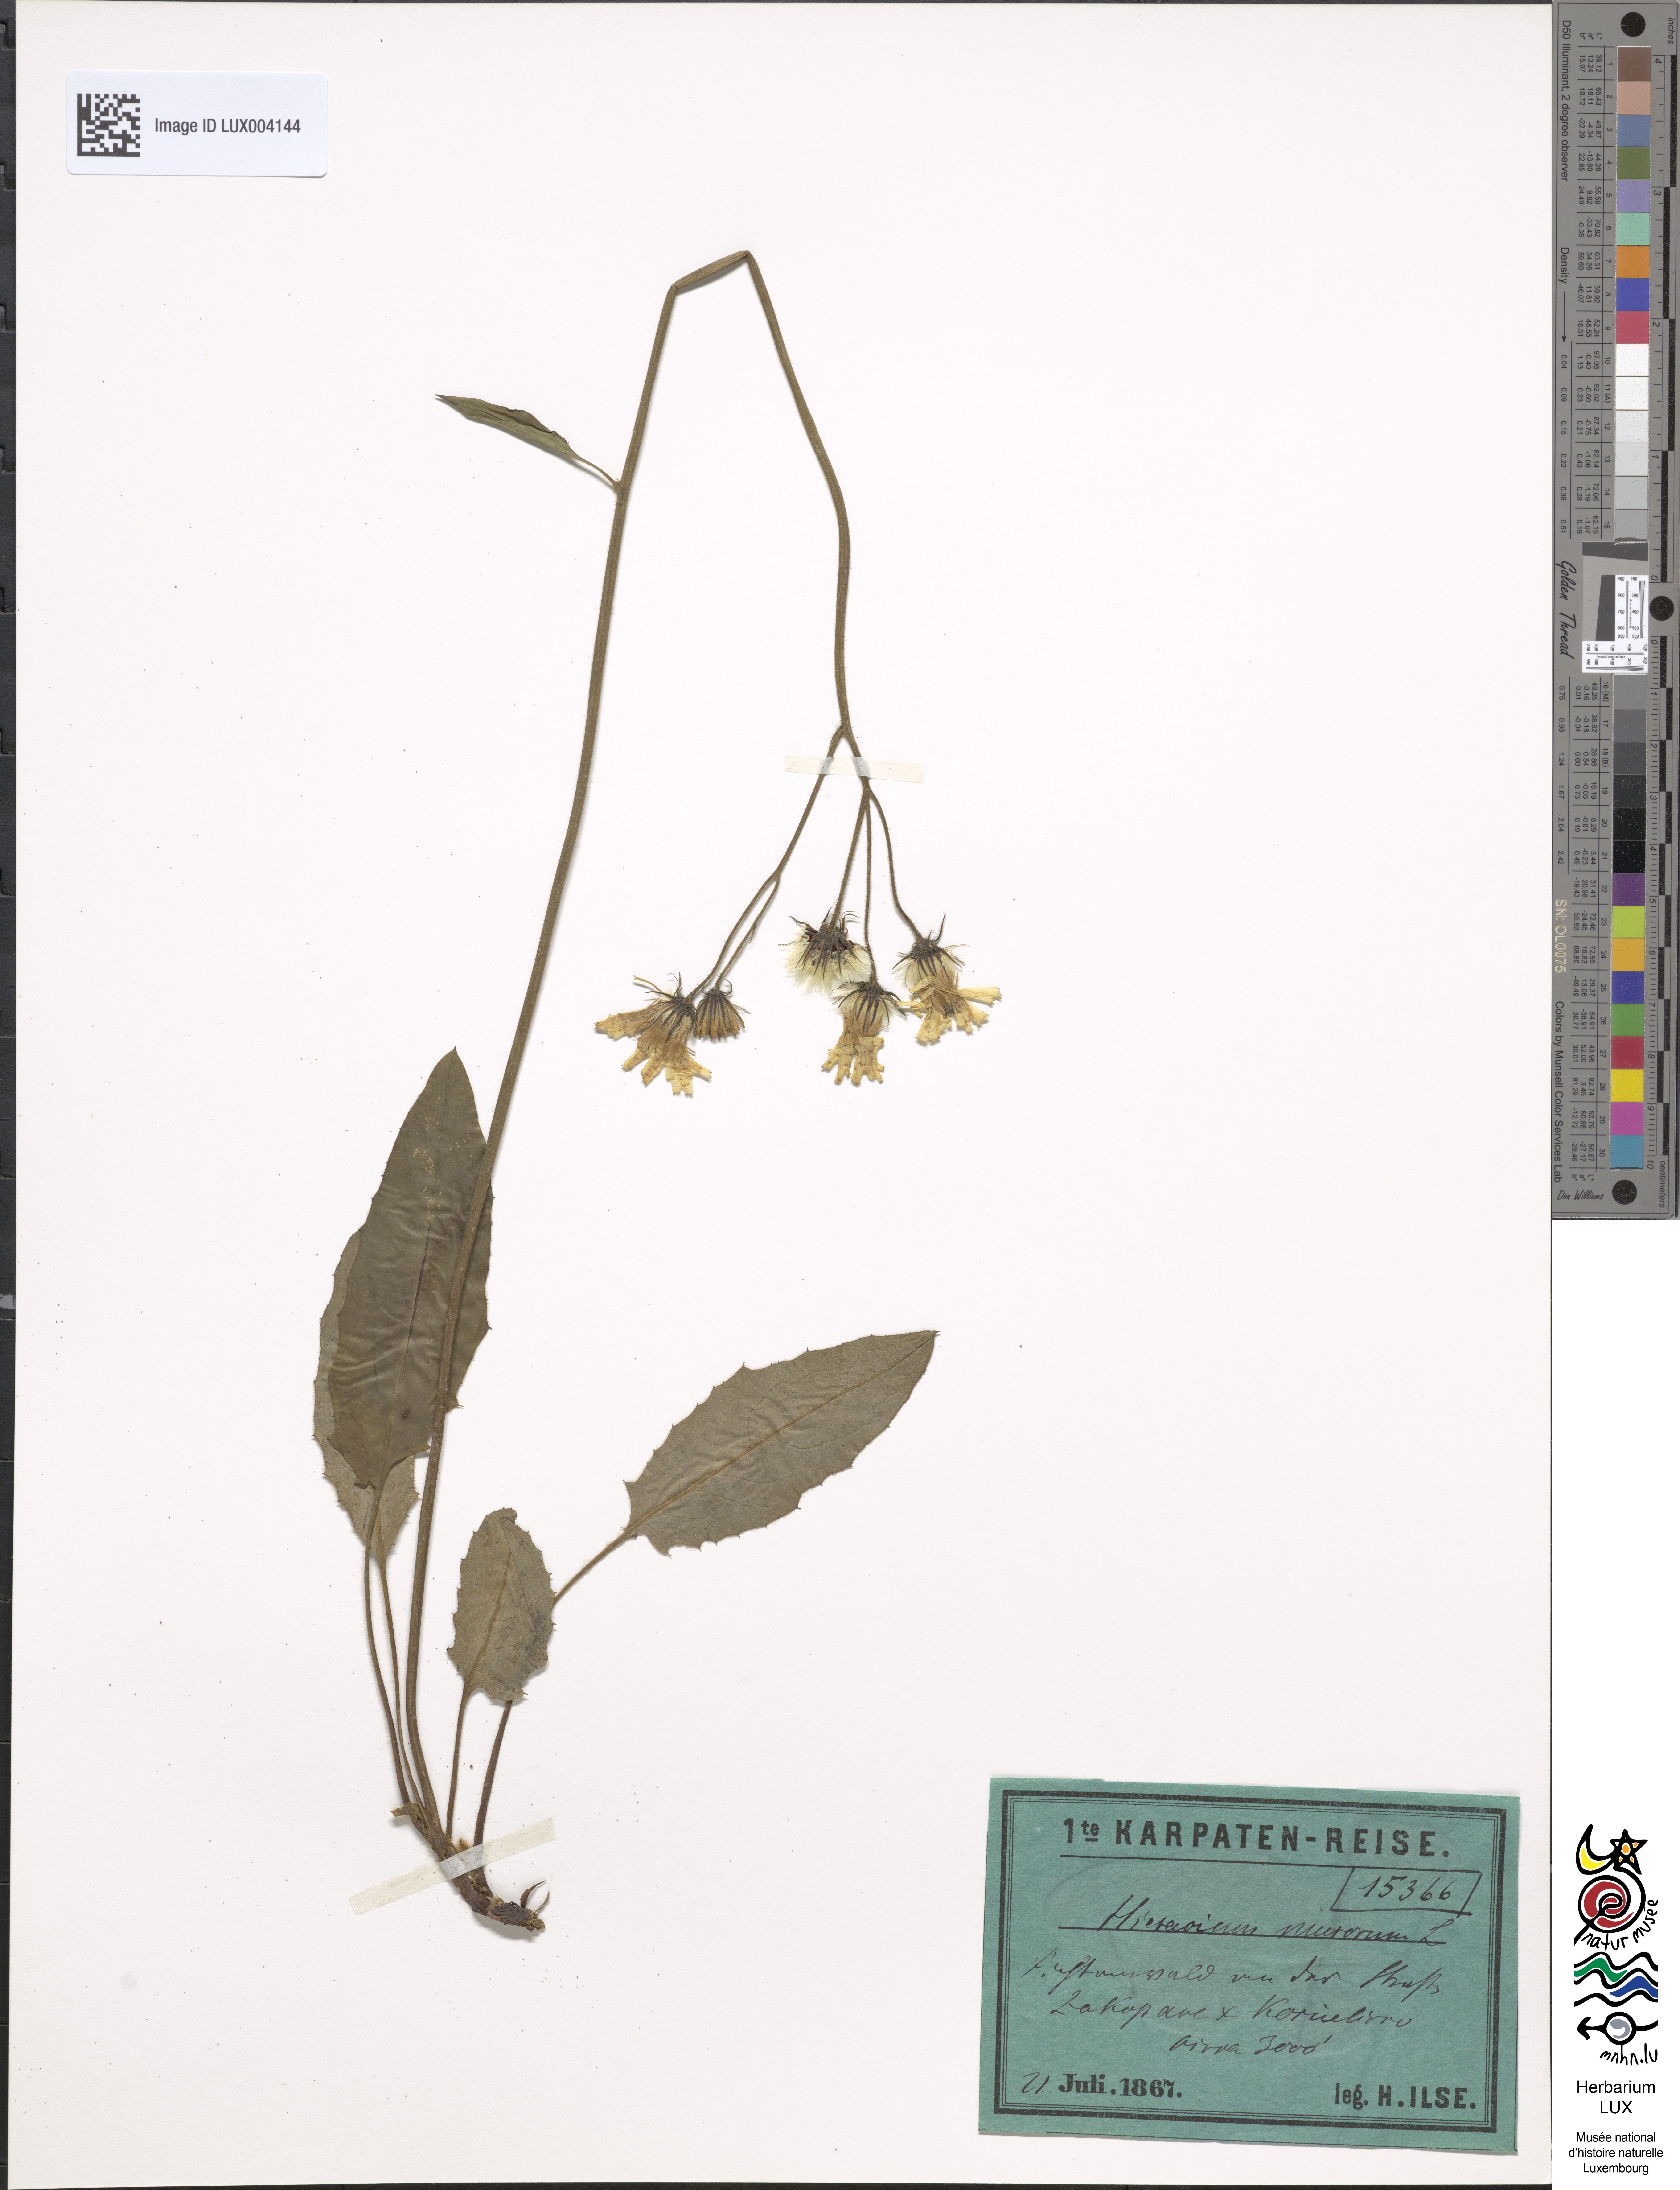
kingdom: Plantae
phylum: Tracheophyta
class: Magnoliopsida
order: Asterales
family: Asteraceae
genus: Hieracium
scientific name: Hieracium subcaesium
